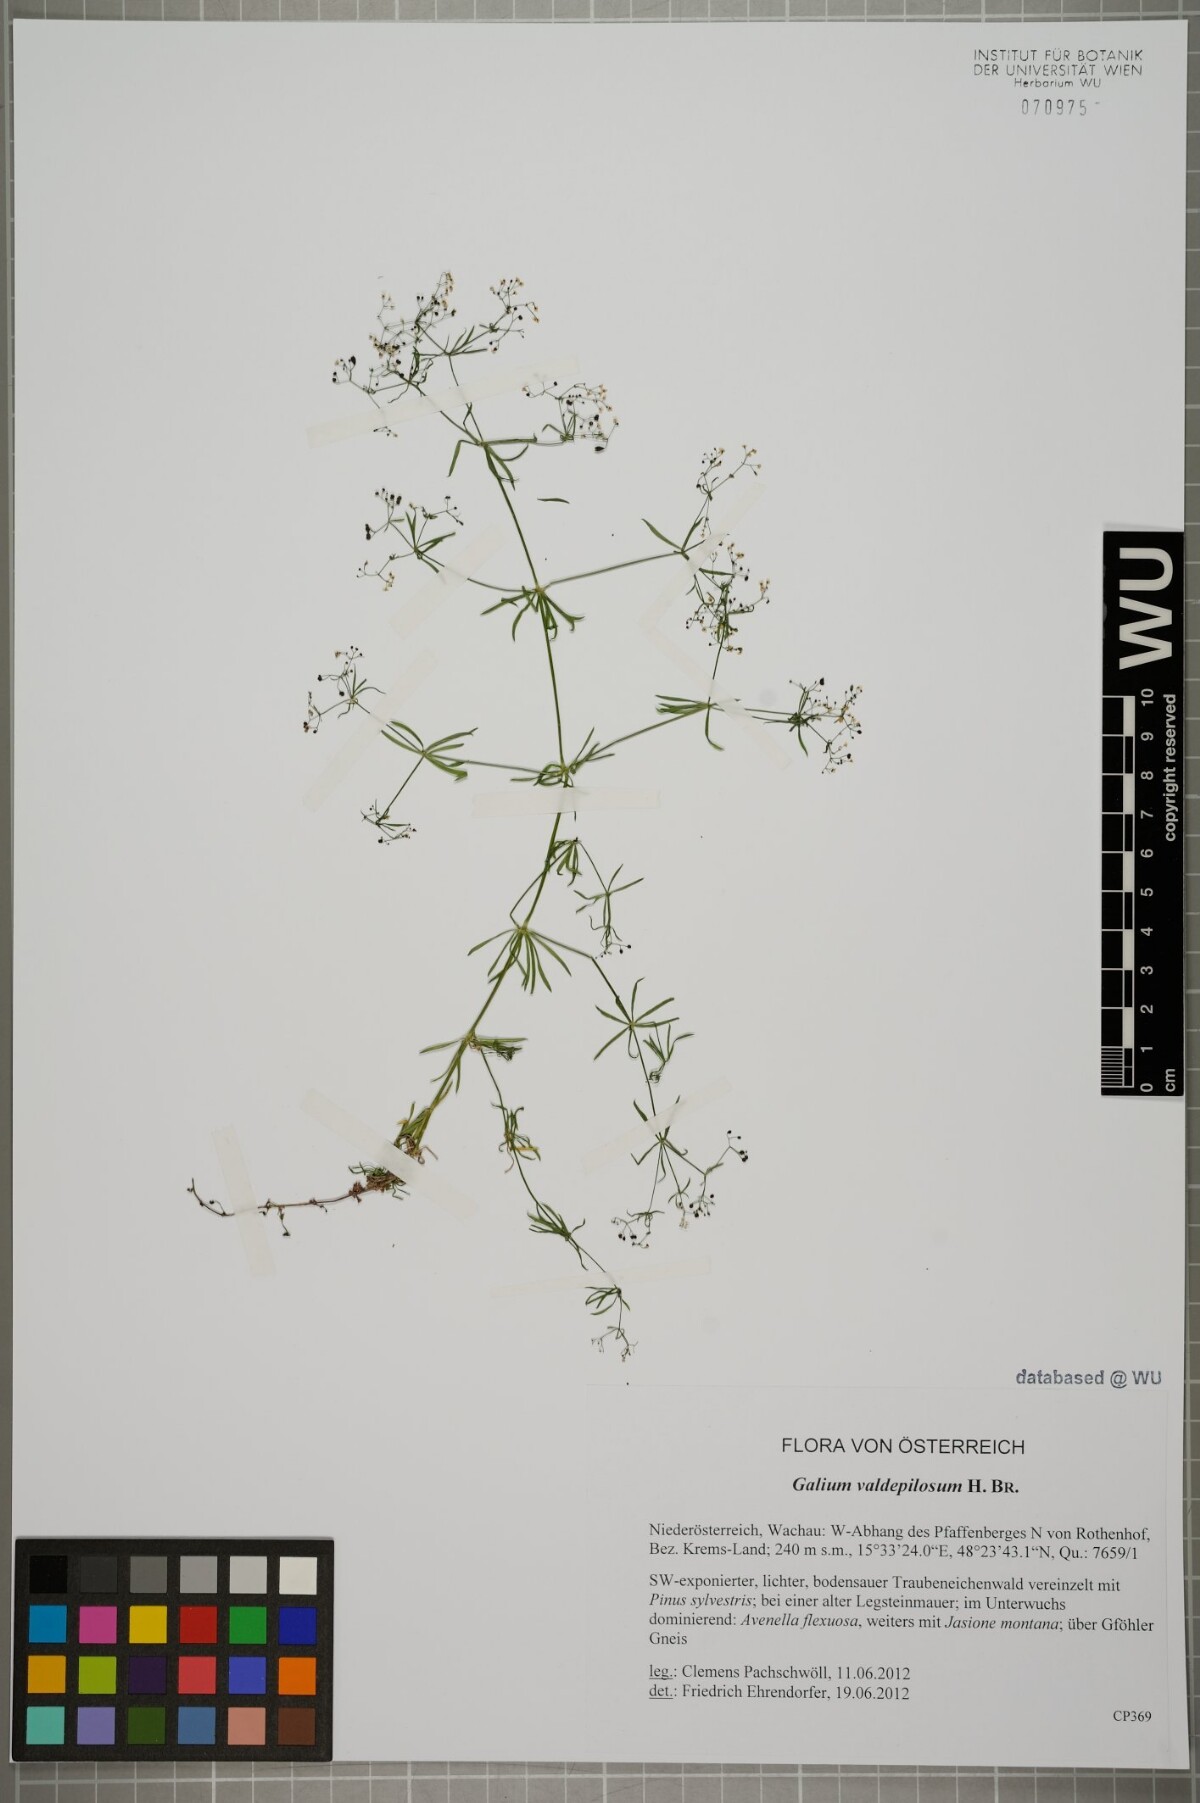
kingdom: Plantae
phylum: Tracheophyta
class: Magnoliopsida
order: Gentianales
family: Rubiaceae
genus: Galium
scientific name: Galium valdepilosum
